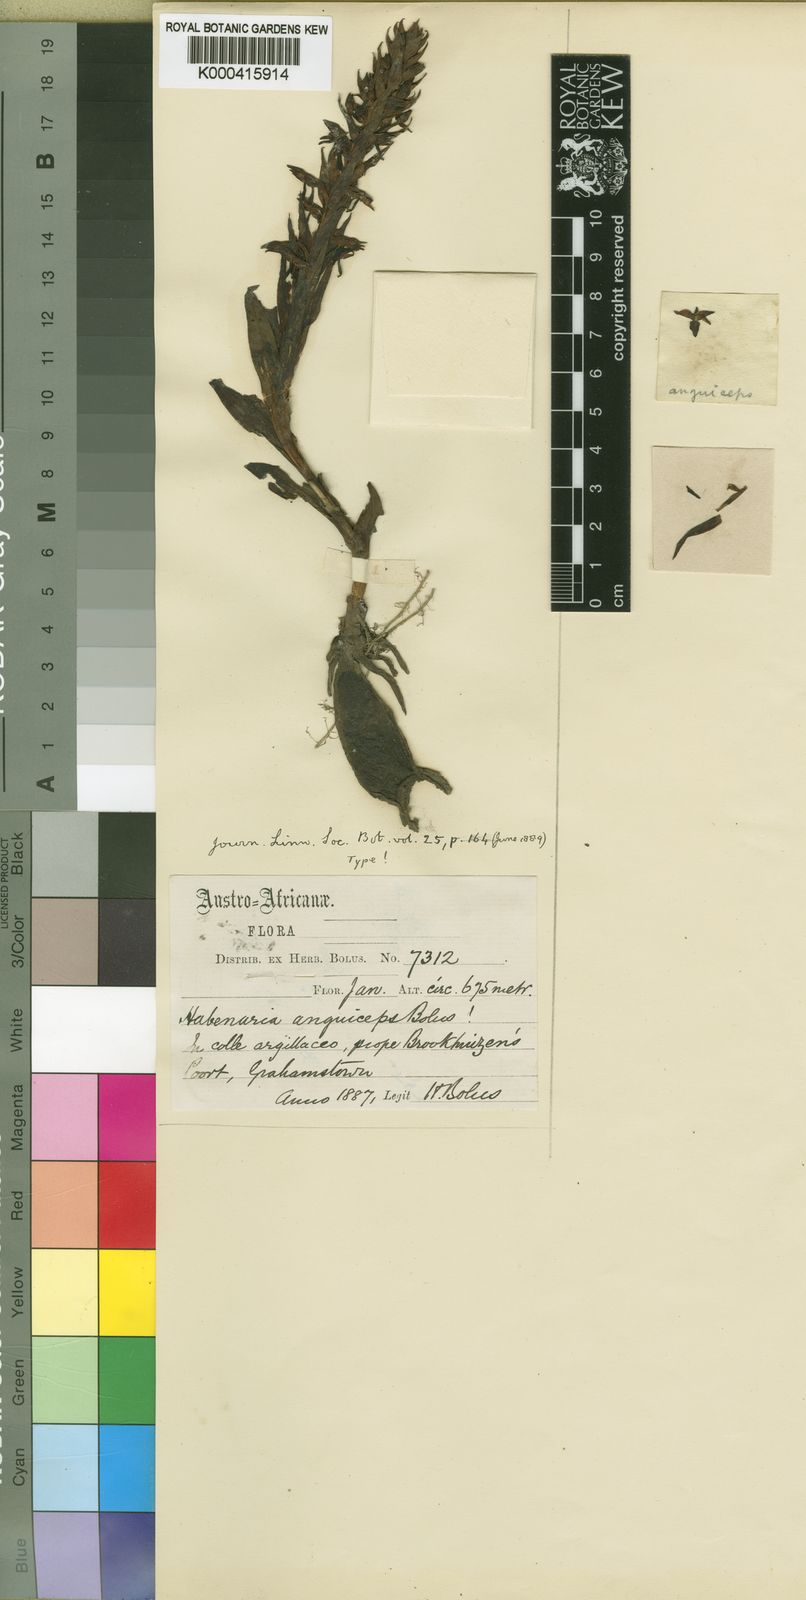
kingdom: Plantae
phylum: Tracheophyta
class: Liliopsida
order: Asparagales
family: Orchidaceae
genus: Habenaria
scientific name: Habenaria anguiceps
